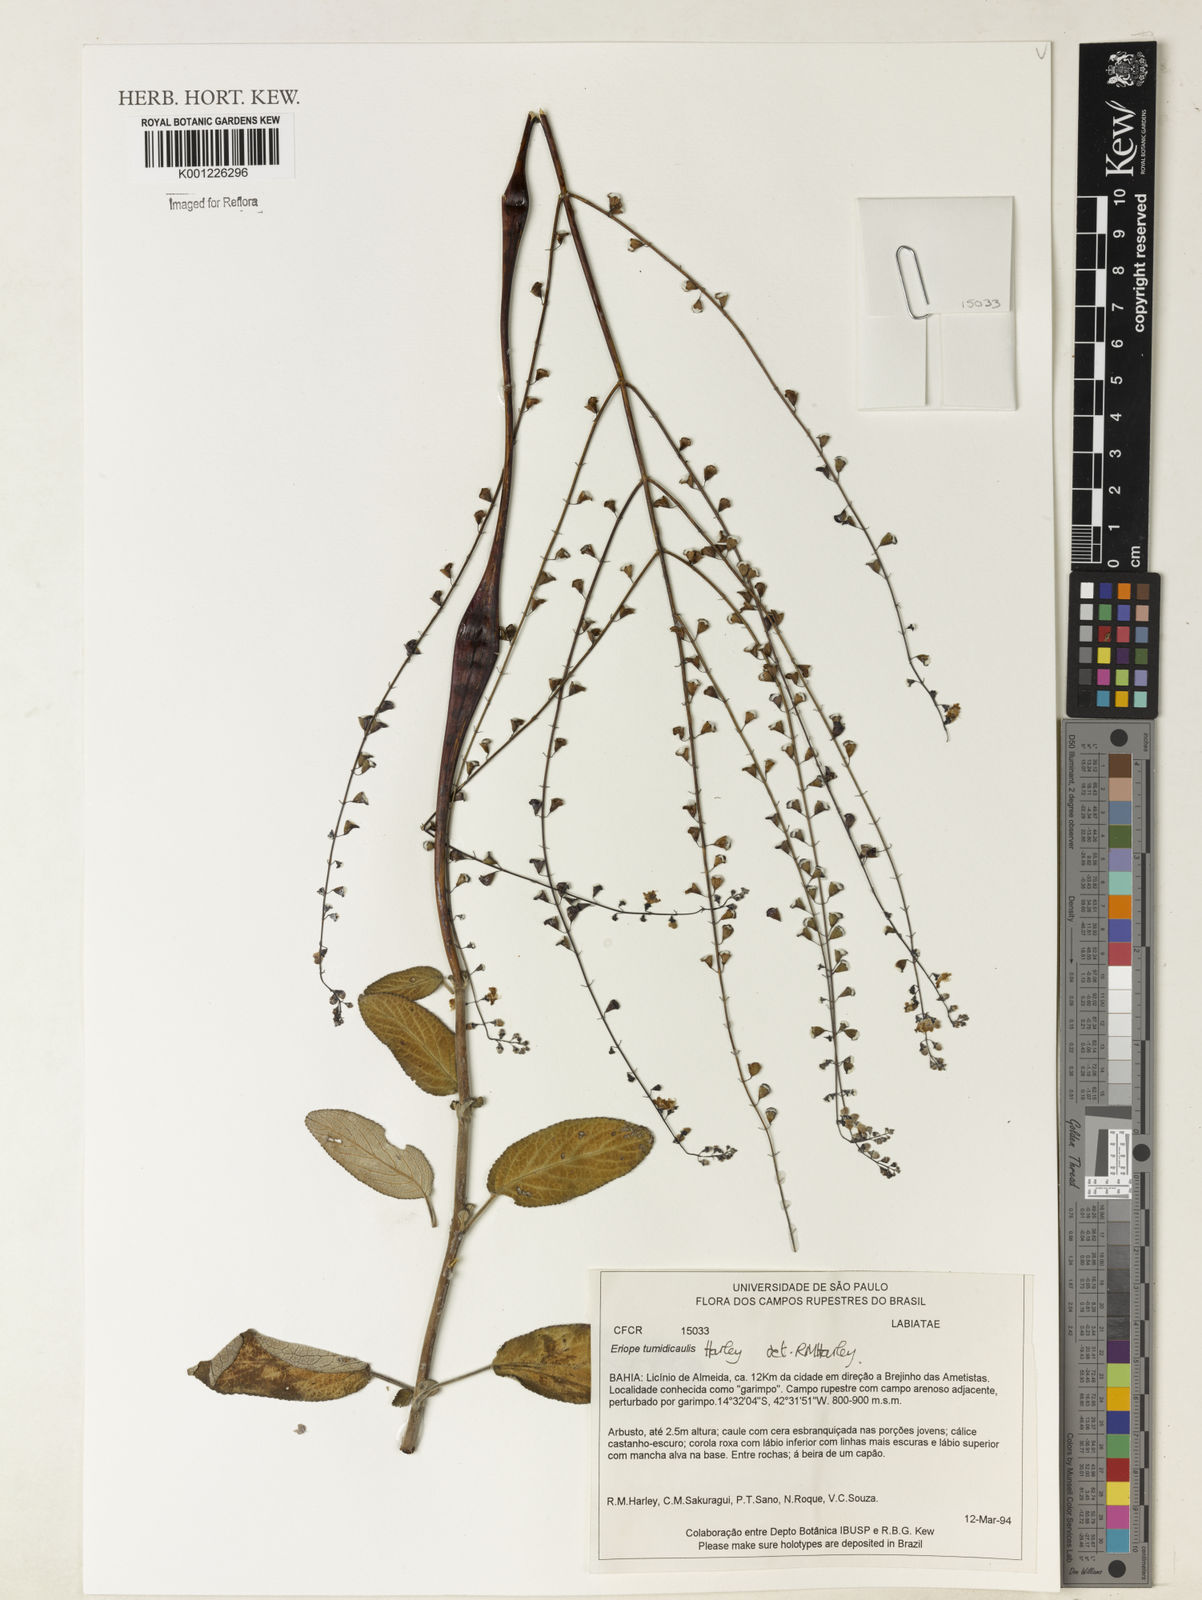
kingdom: Plantae
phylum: Tracheophyta
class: Magnoliopsida
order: Lamiales
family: Lamiaceae
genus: Eriope
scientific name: Eriope tumidicaulis
